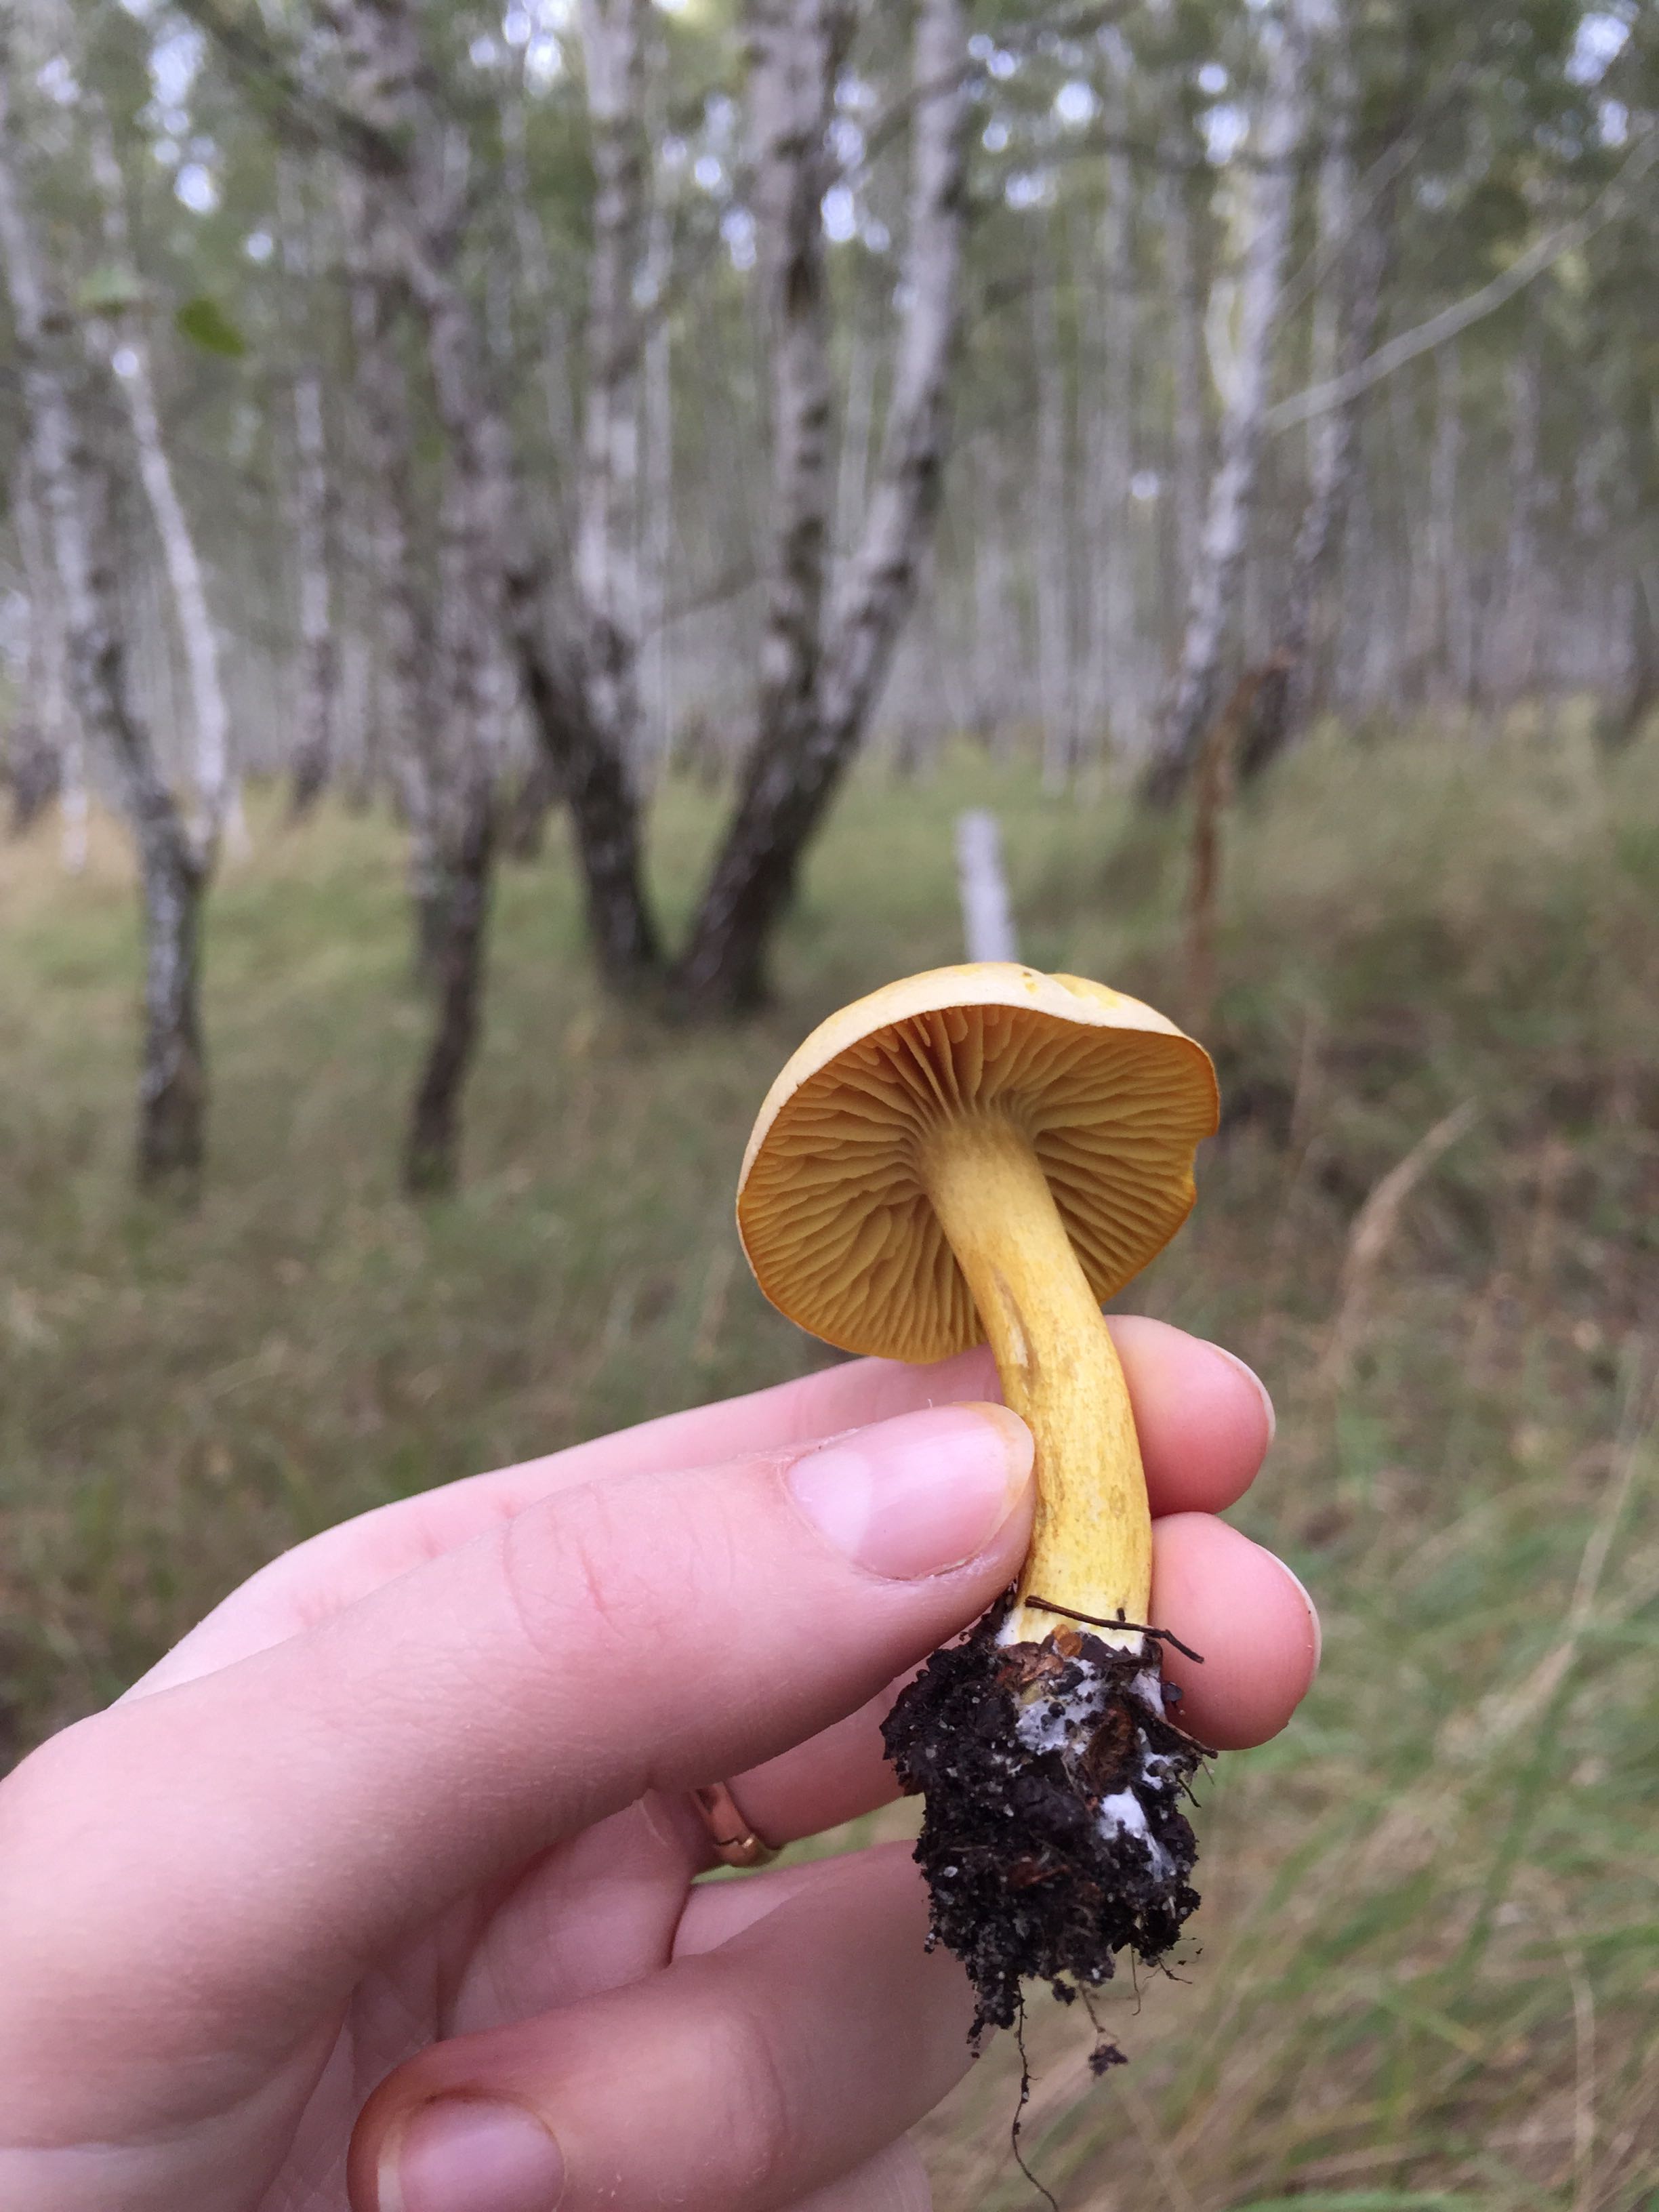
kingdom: Fungi
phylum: Basidiomycota
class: Agaricomycetes
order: Agaricales
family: Tricholomataceae
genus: Tricholoma
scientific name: Tricholoma sulphureum
